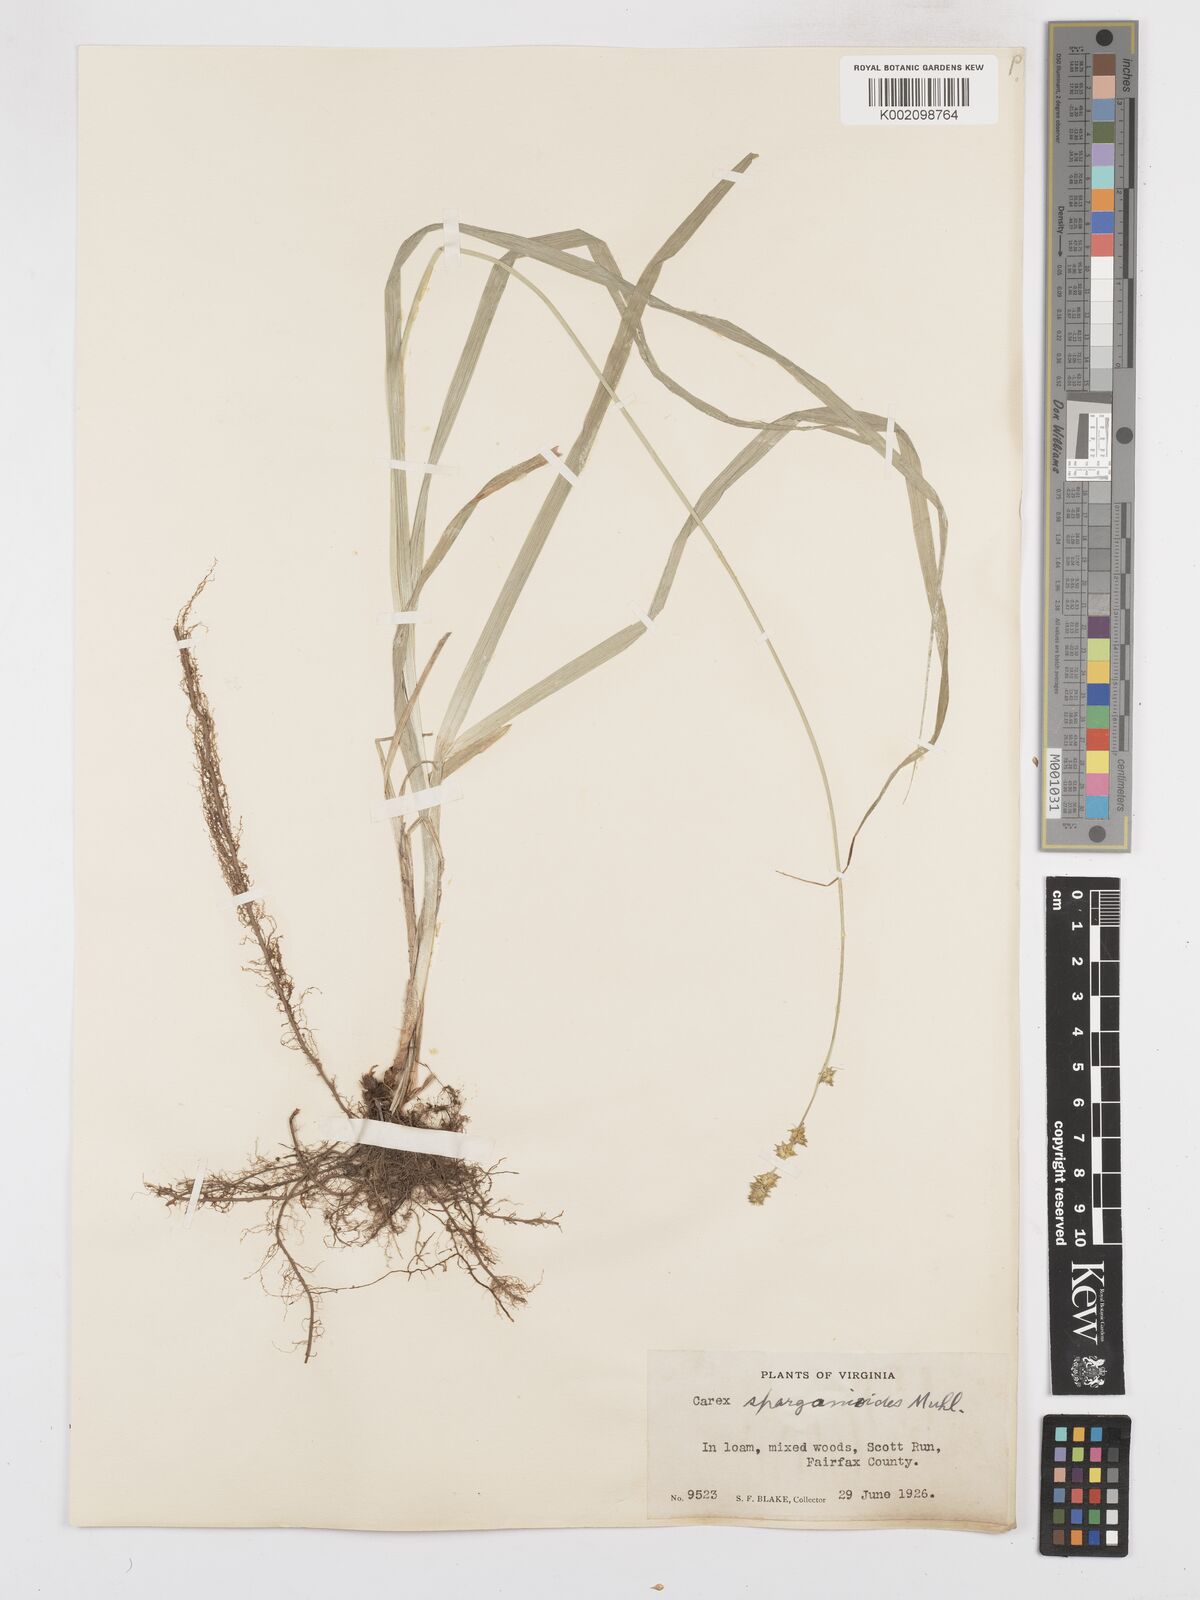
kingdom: Plantae
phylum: Tracheophyta
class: Liliopsida
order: Poales
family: Cyperaceae
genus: Carex
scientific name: Carex sparganioides
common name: Burreed sedge
